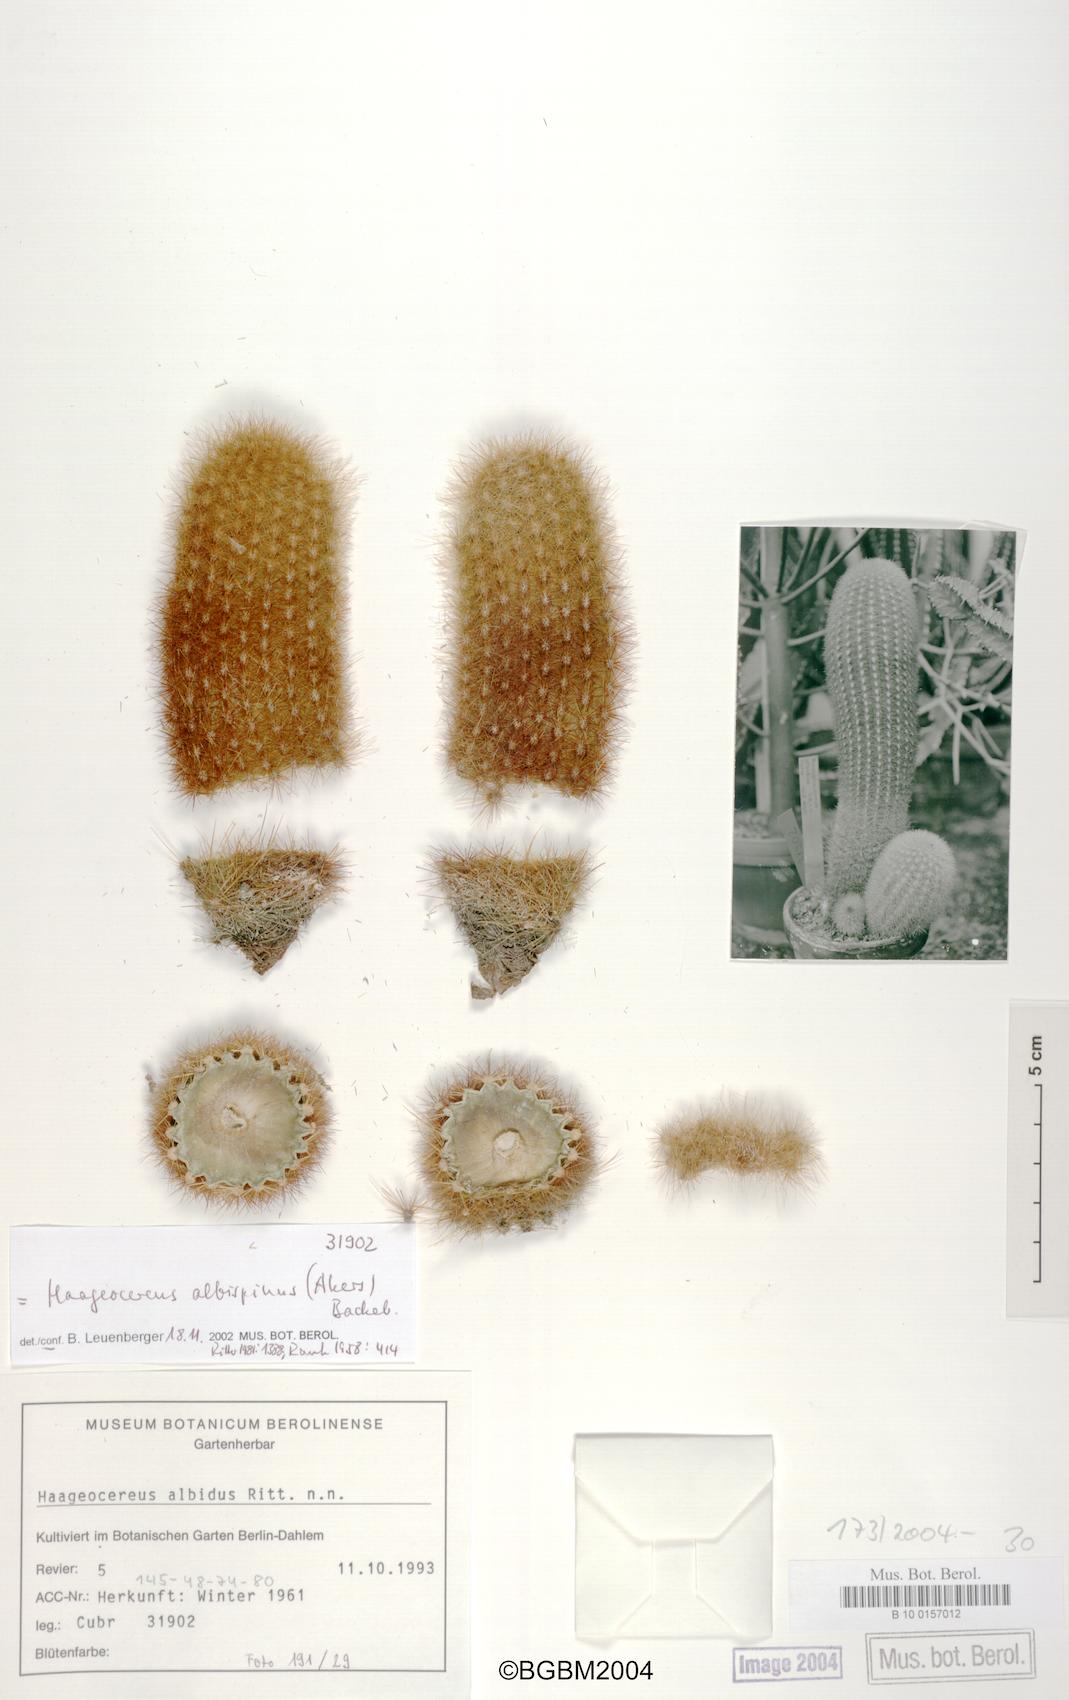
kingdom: Plantae
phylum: Tracheophyta
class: Magnoliopsida
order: Caryophyllales
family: Cactaceae
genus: Haageocereus
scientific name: Haageocereus pseudomelanostele
